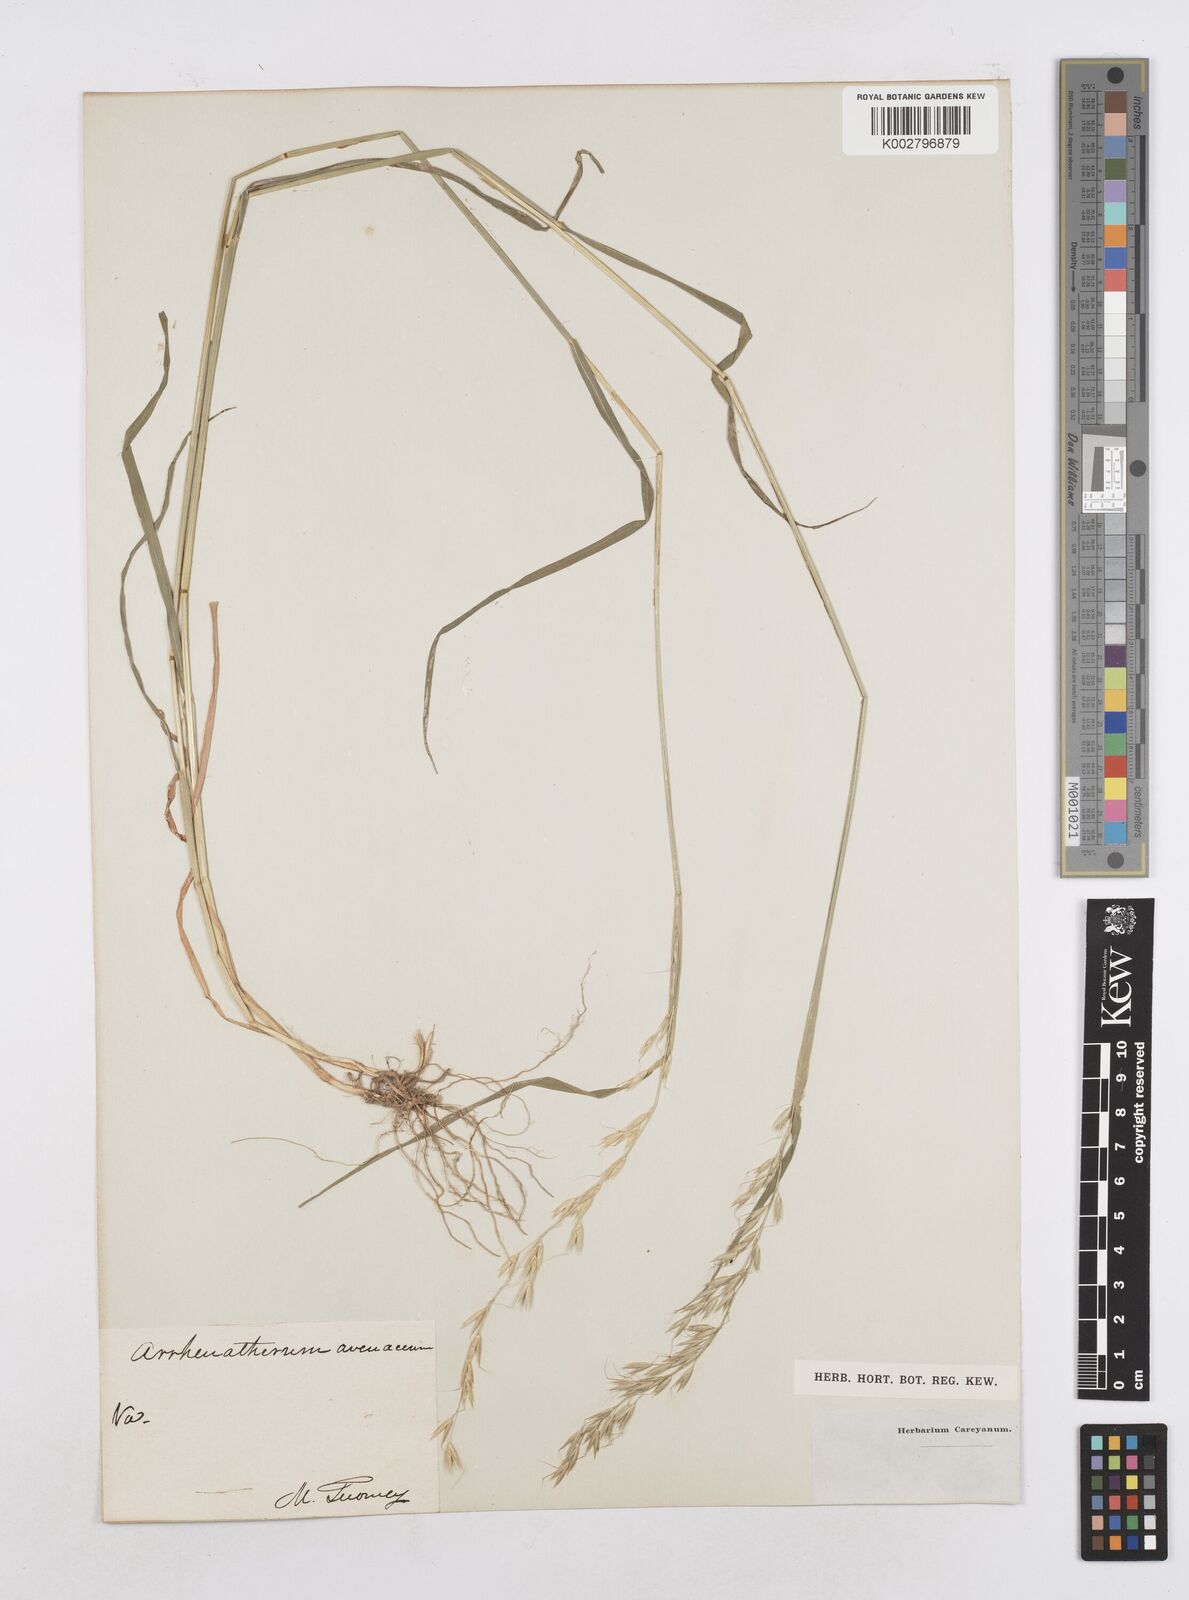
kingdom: Plantae
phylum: Tracheophyta
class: Liliopsida
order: Poales
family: Poaceae
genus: Arrhenatherum
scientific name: Arrhenatherum elatius
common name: Tall oatgrass
